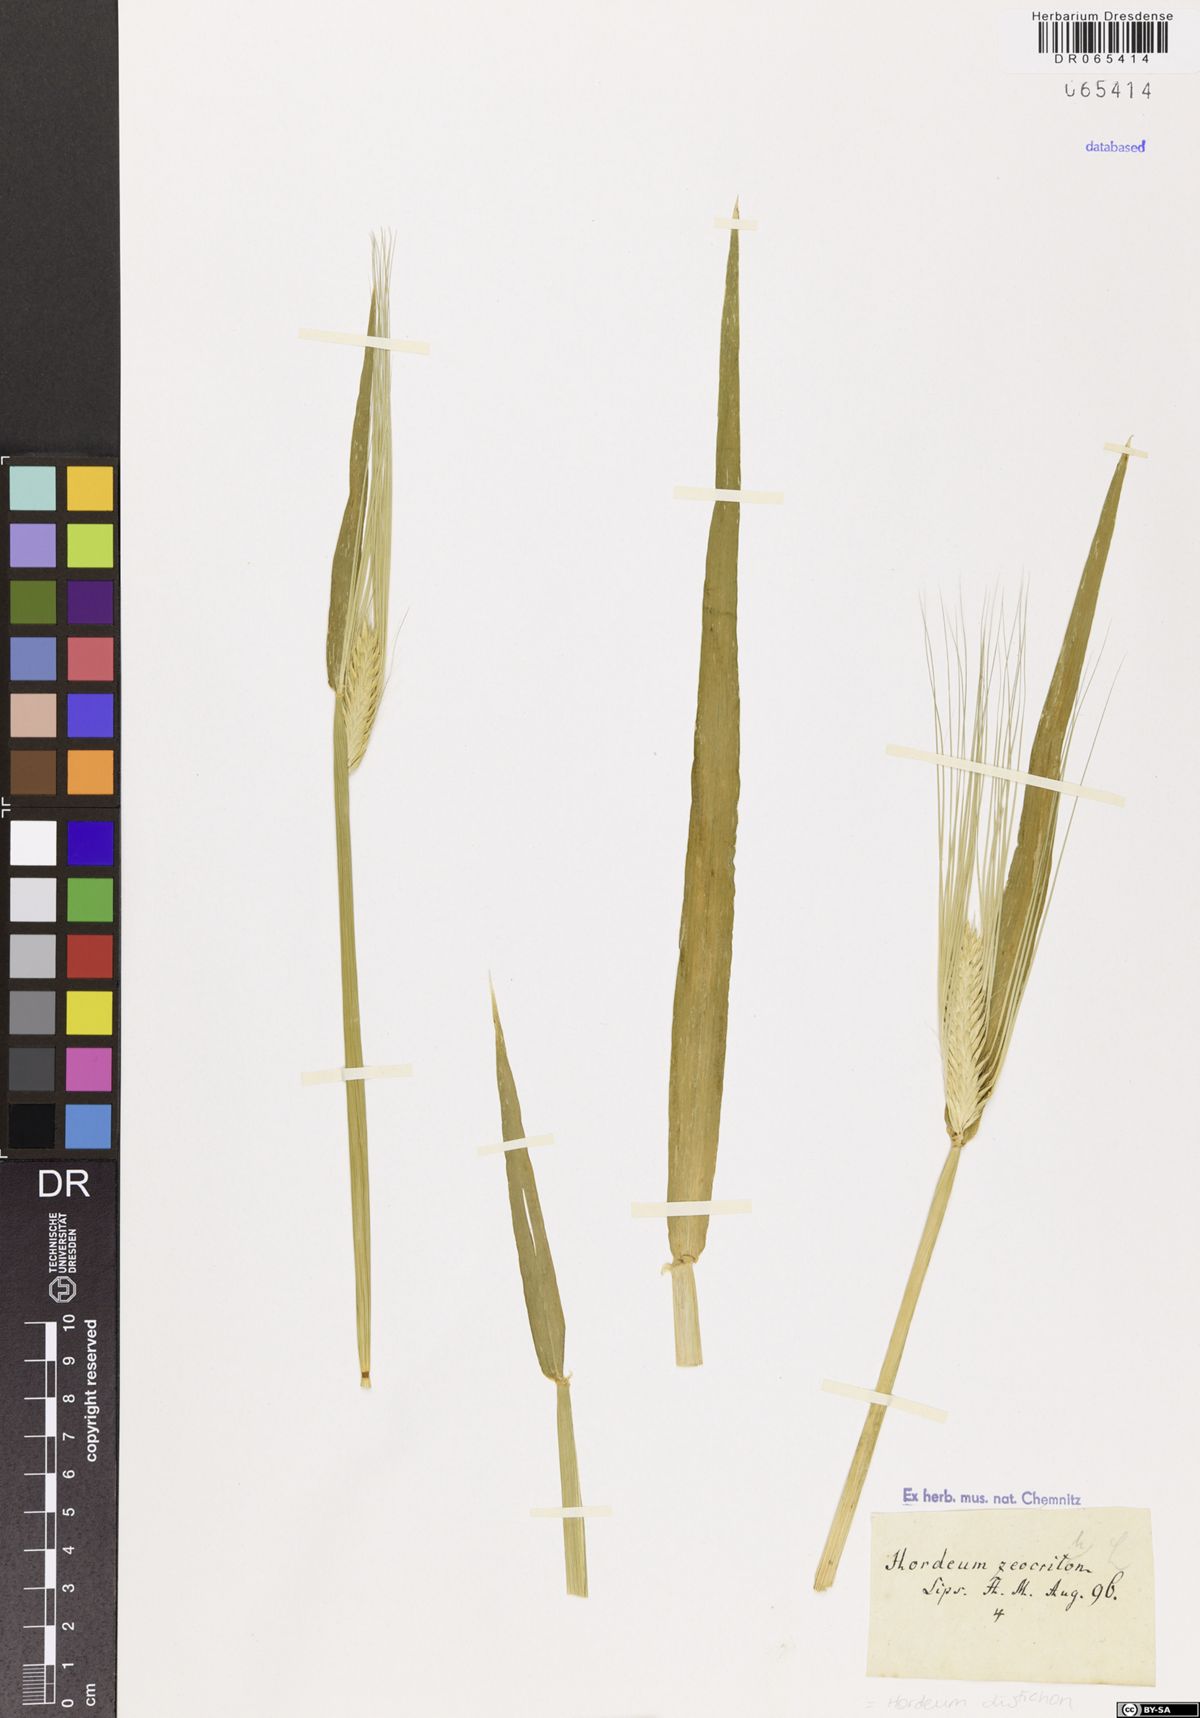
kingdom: Plantae
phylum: Tracheophyta
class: Liliopsida
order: Poales
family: Poaceae
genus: Hordeum
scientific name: Hordeum distichon
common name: Two-rowed barley
